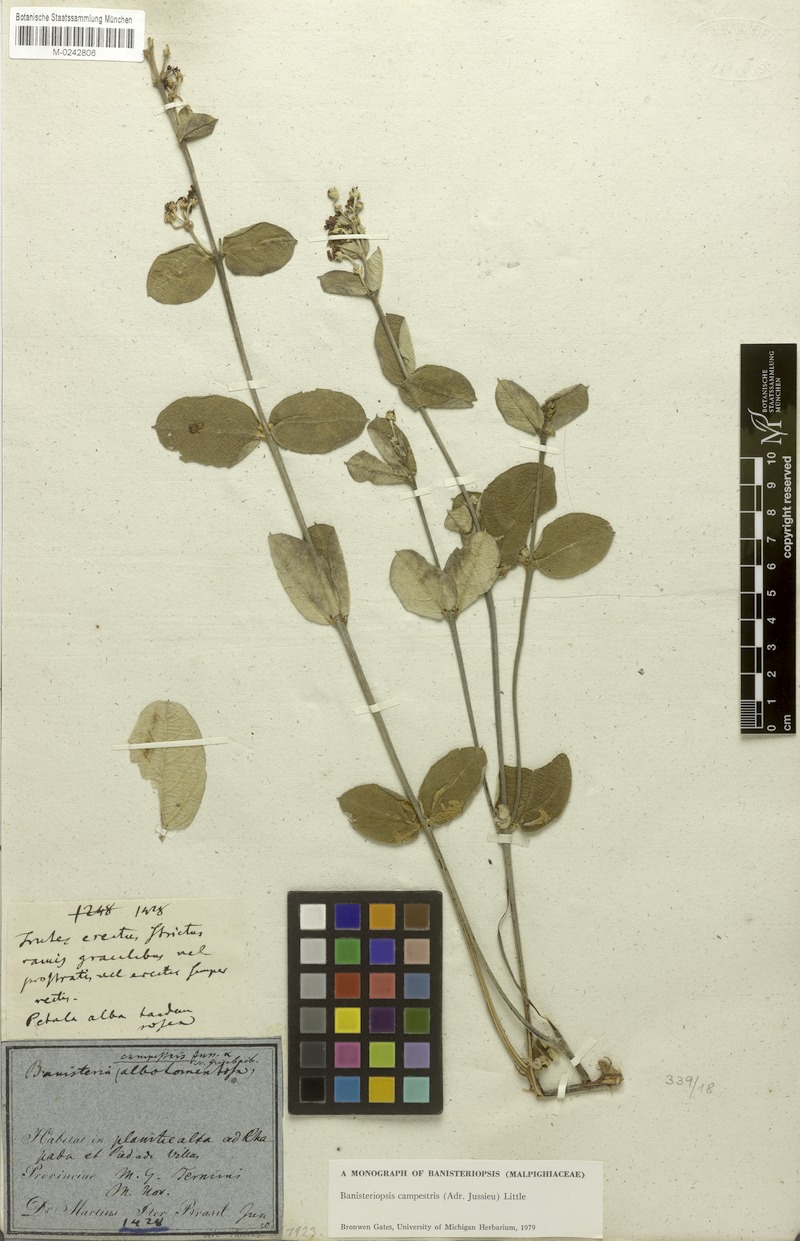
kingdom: Plantae
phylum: Tracheophyta
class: Magnoliopsida
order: Malpighiales
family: Malpighiaceae
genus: Banisteriopsis
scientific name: Banisteriopsis campestris
